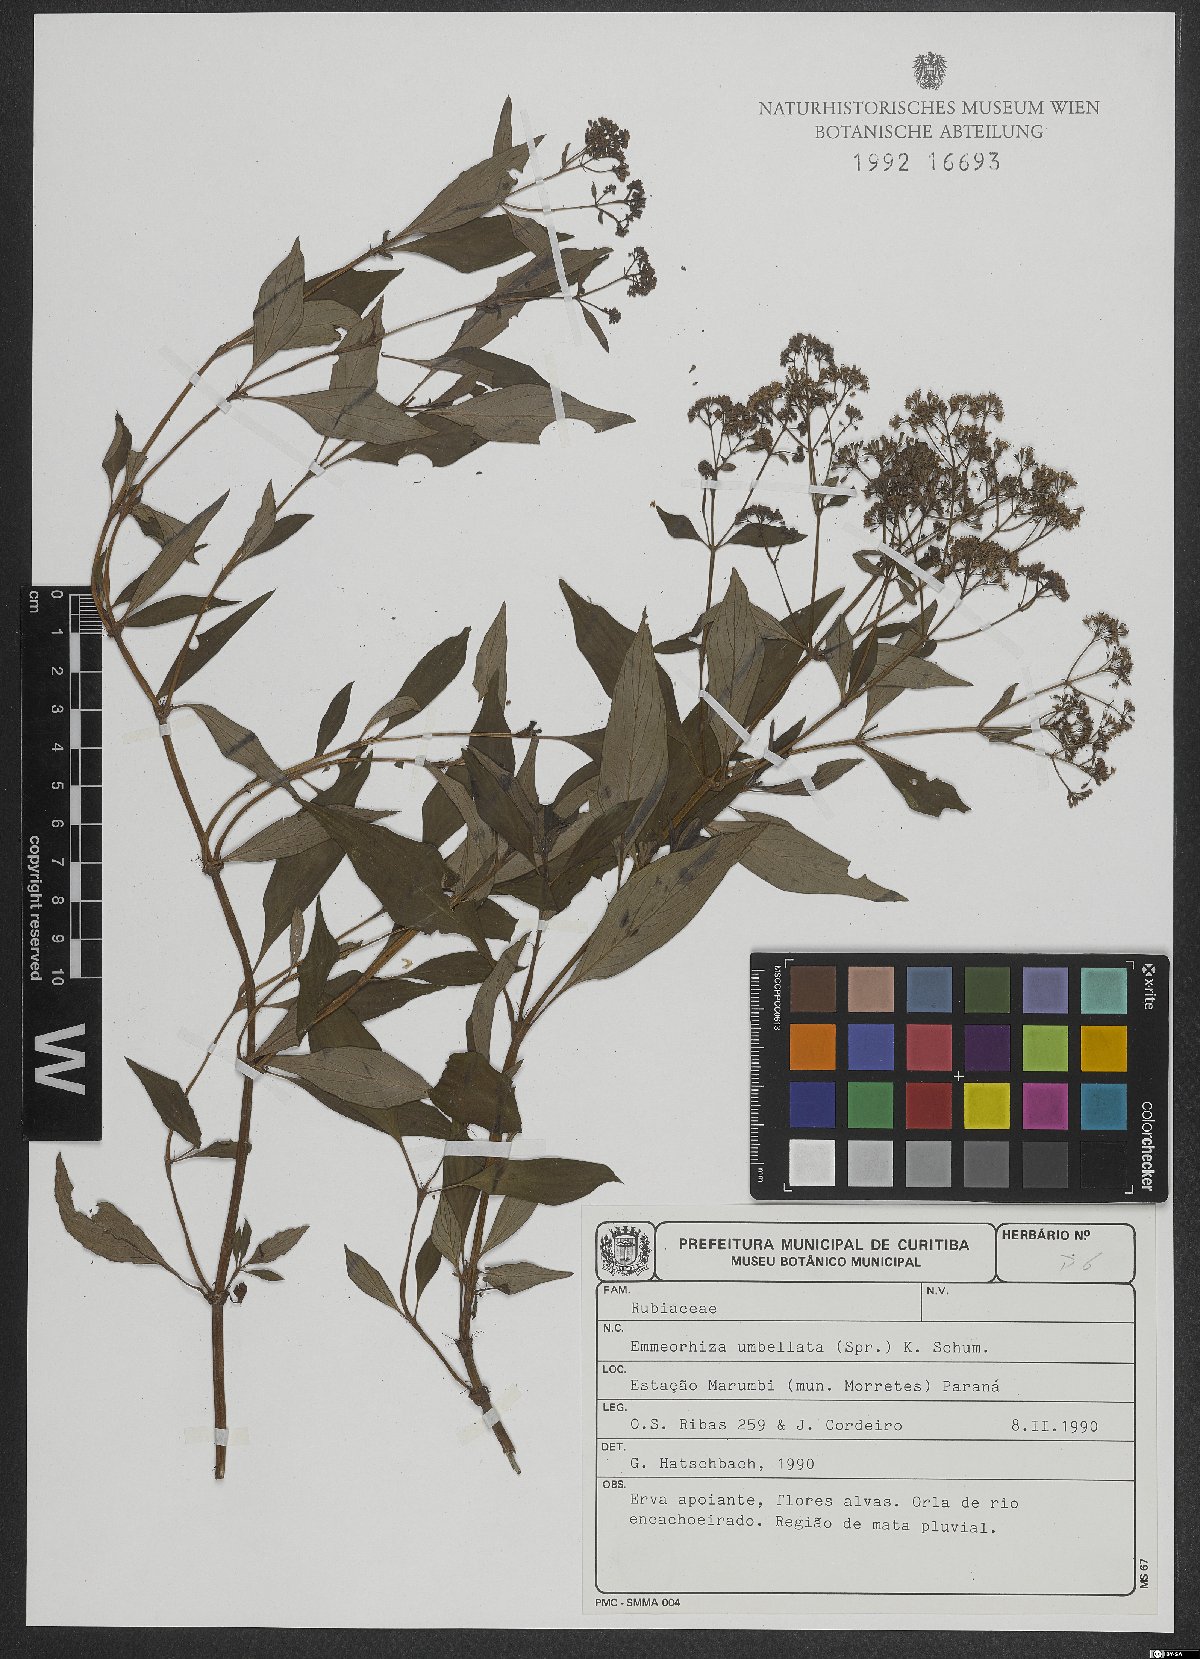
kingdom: Plantae
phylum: Tracheophyta
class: Magnoliopsida
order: Gentianales
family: Rubiaceae
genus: Emmeorhiza
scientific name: Emmeorhiza umbellata
